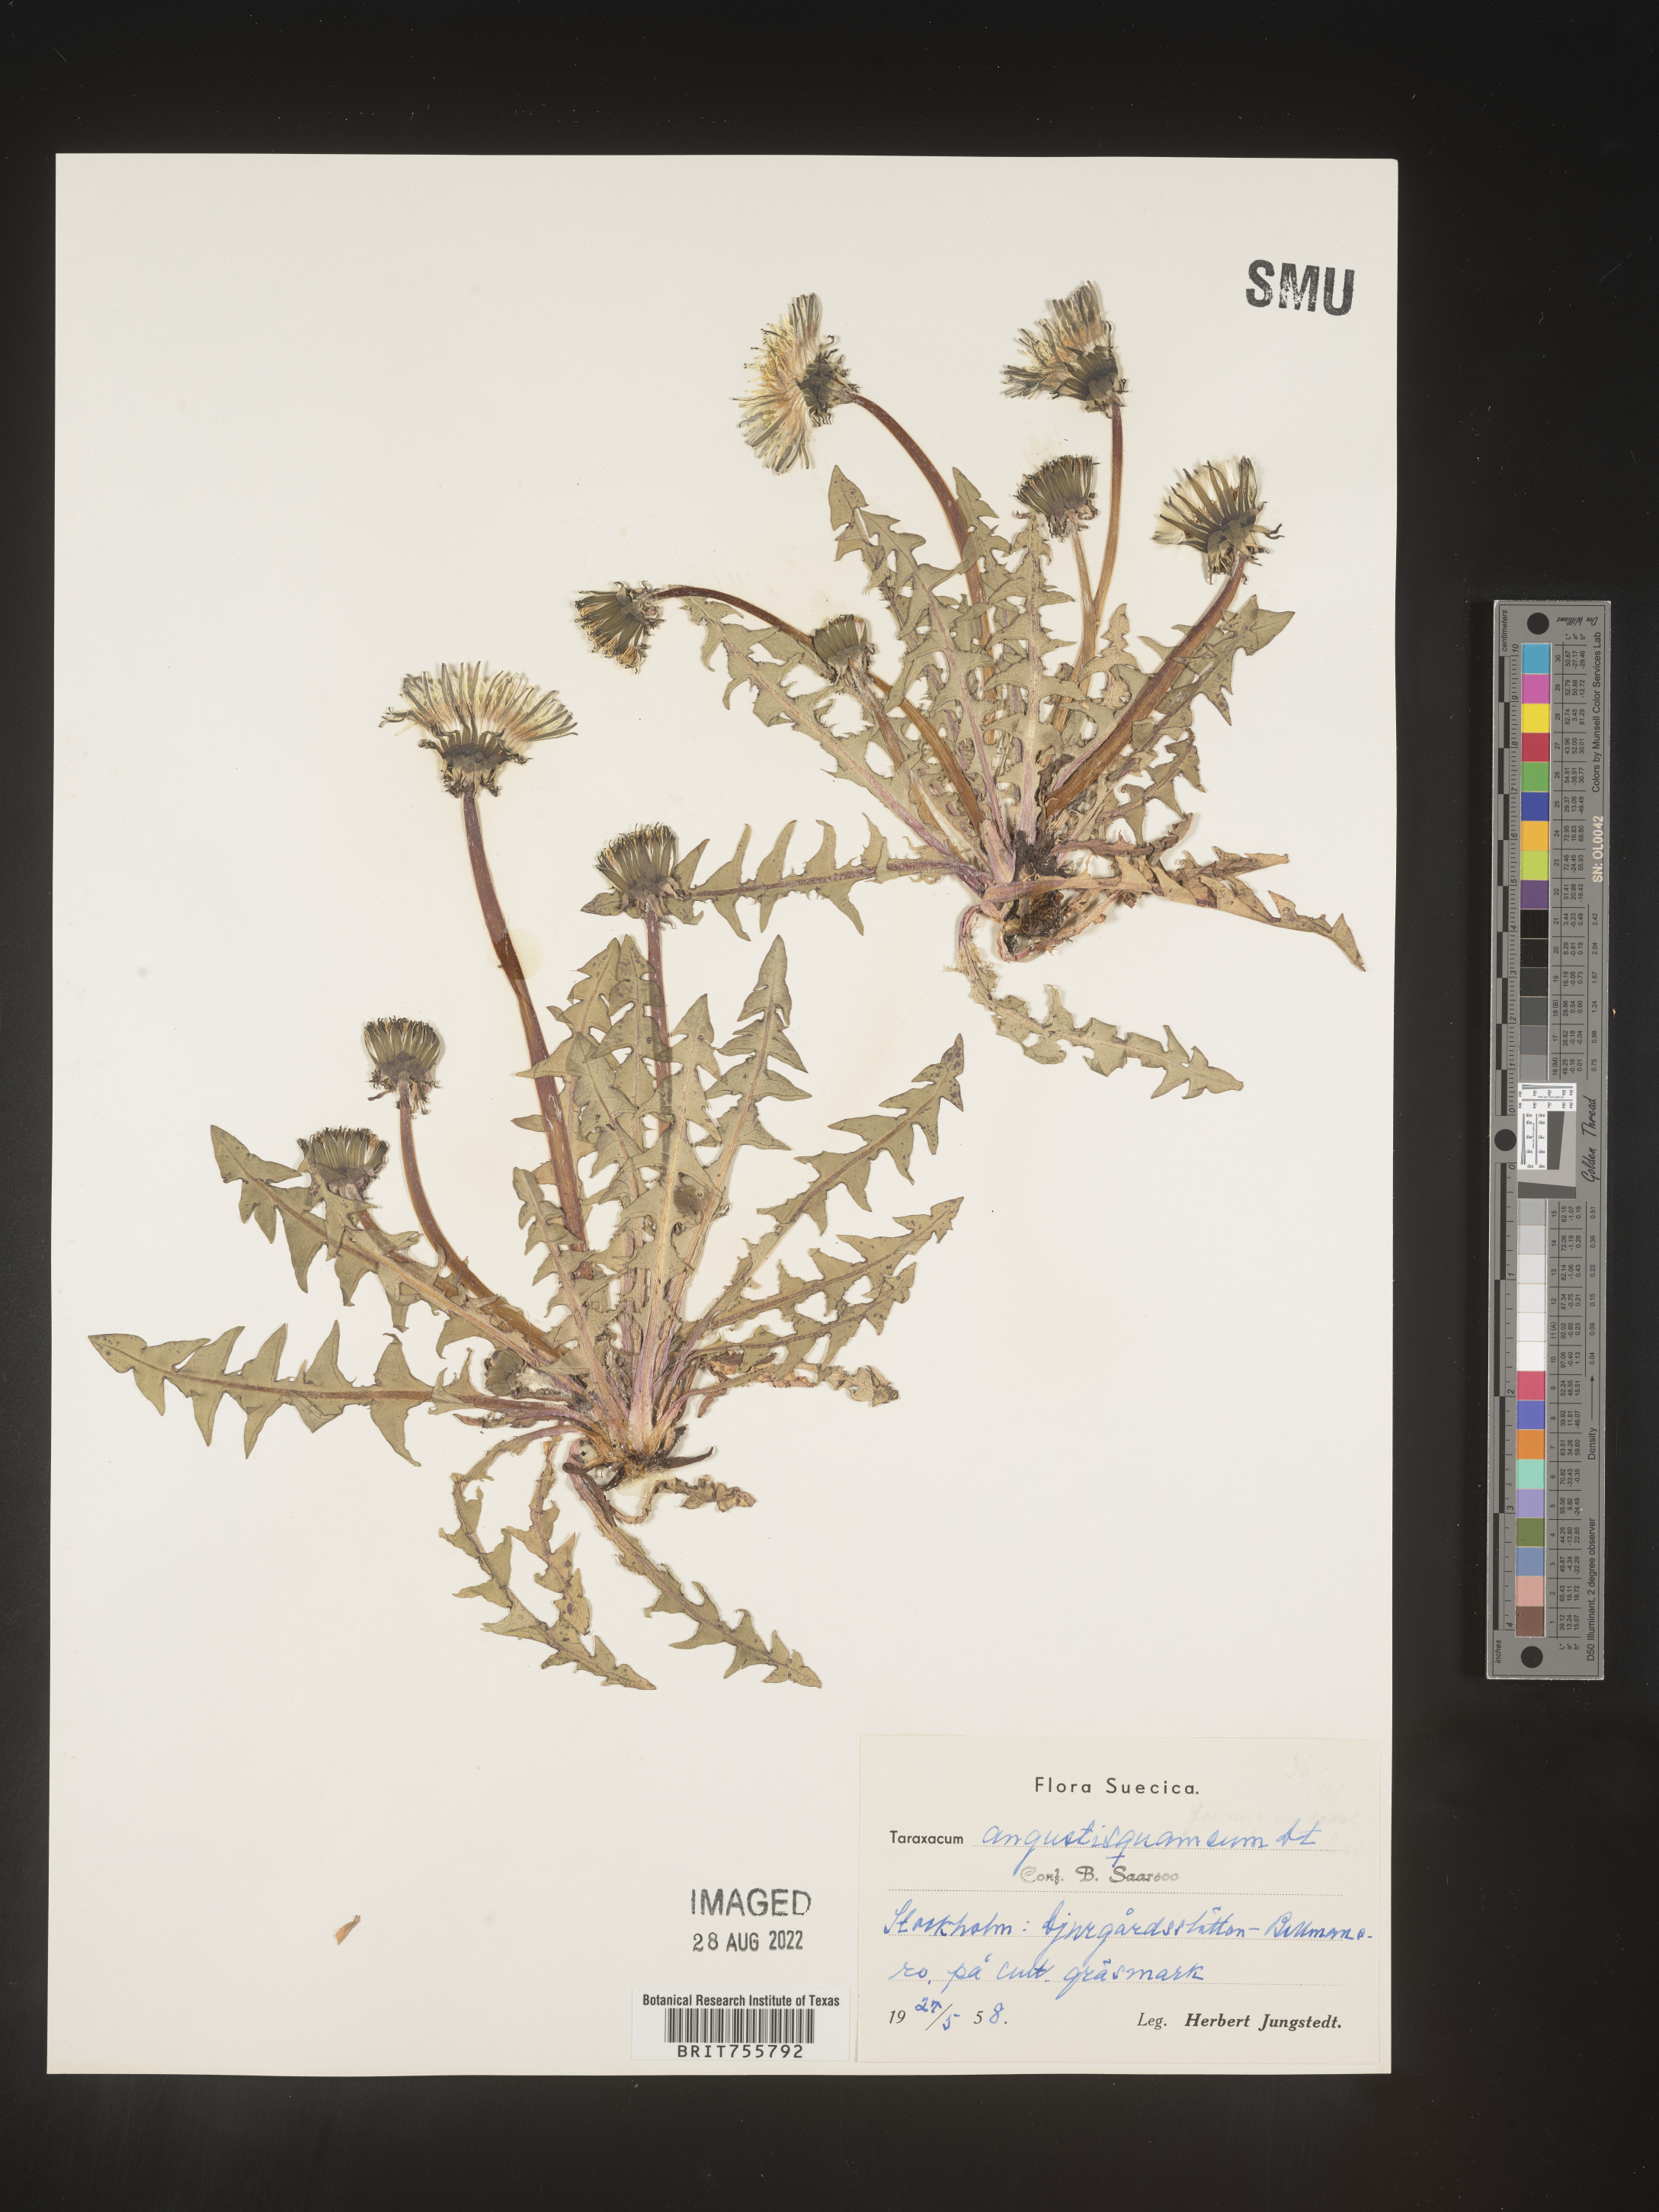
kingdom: Plantae
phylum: Tracheophyta
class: Magnoliopsida
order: Asterales
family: Asteraceae
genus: Taraxacum
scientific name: Taraxacum
